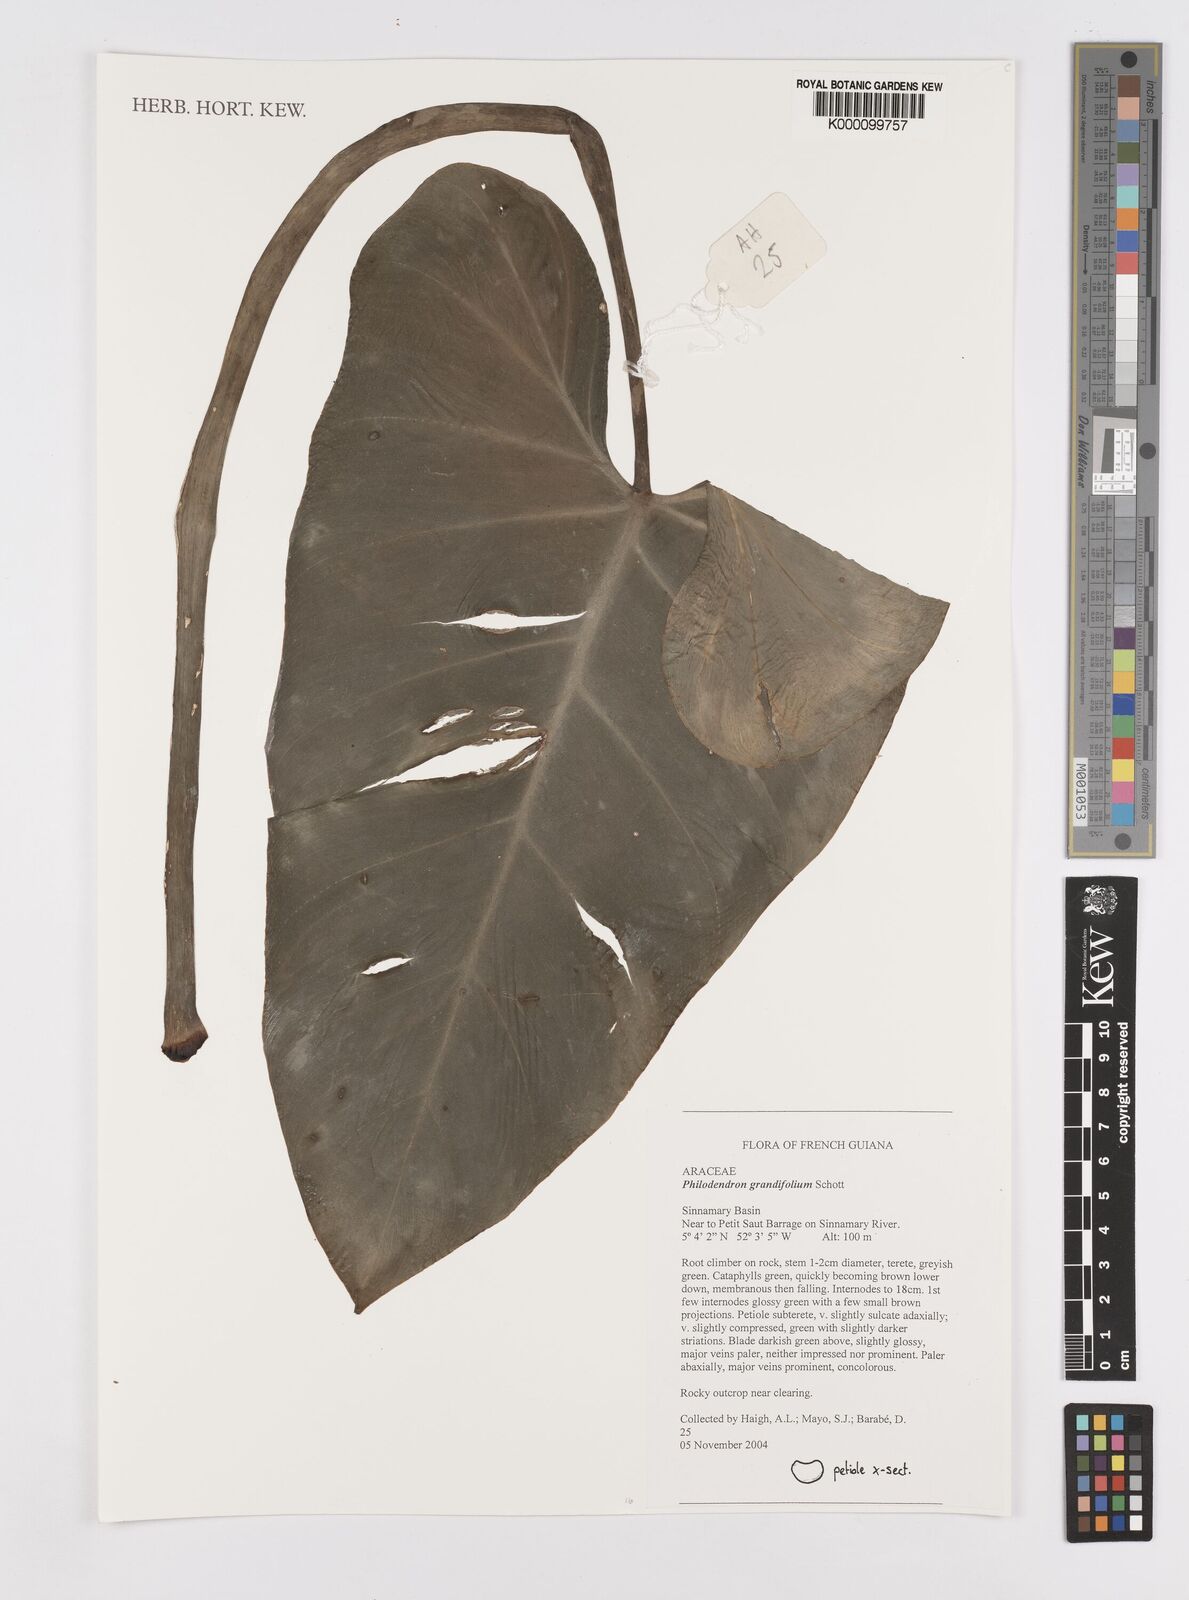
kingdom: Plantae
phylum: Tracheophyta
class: Liliopsida
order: Alismatales
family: Araceae
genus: Philodendron
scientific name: Philodendron grandifolium
